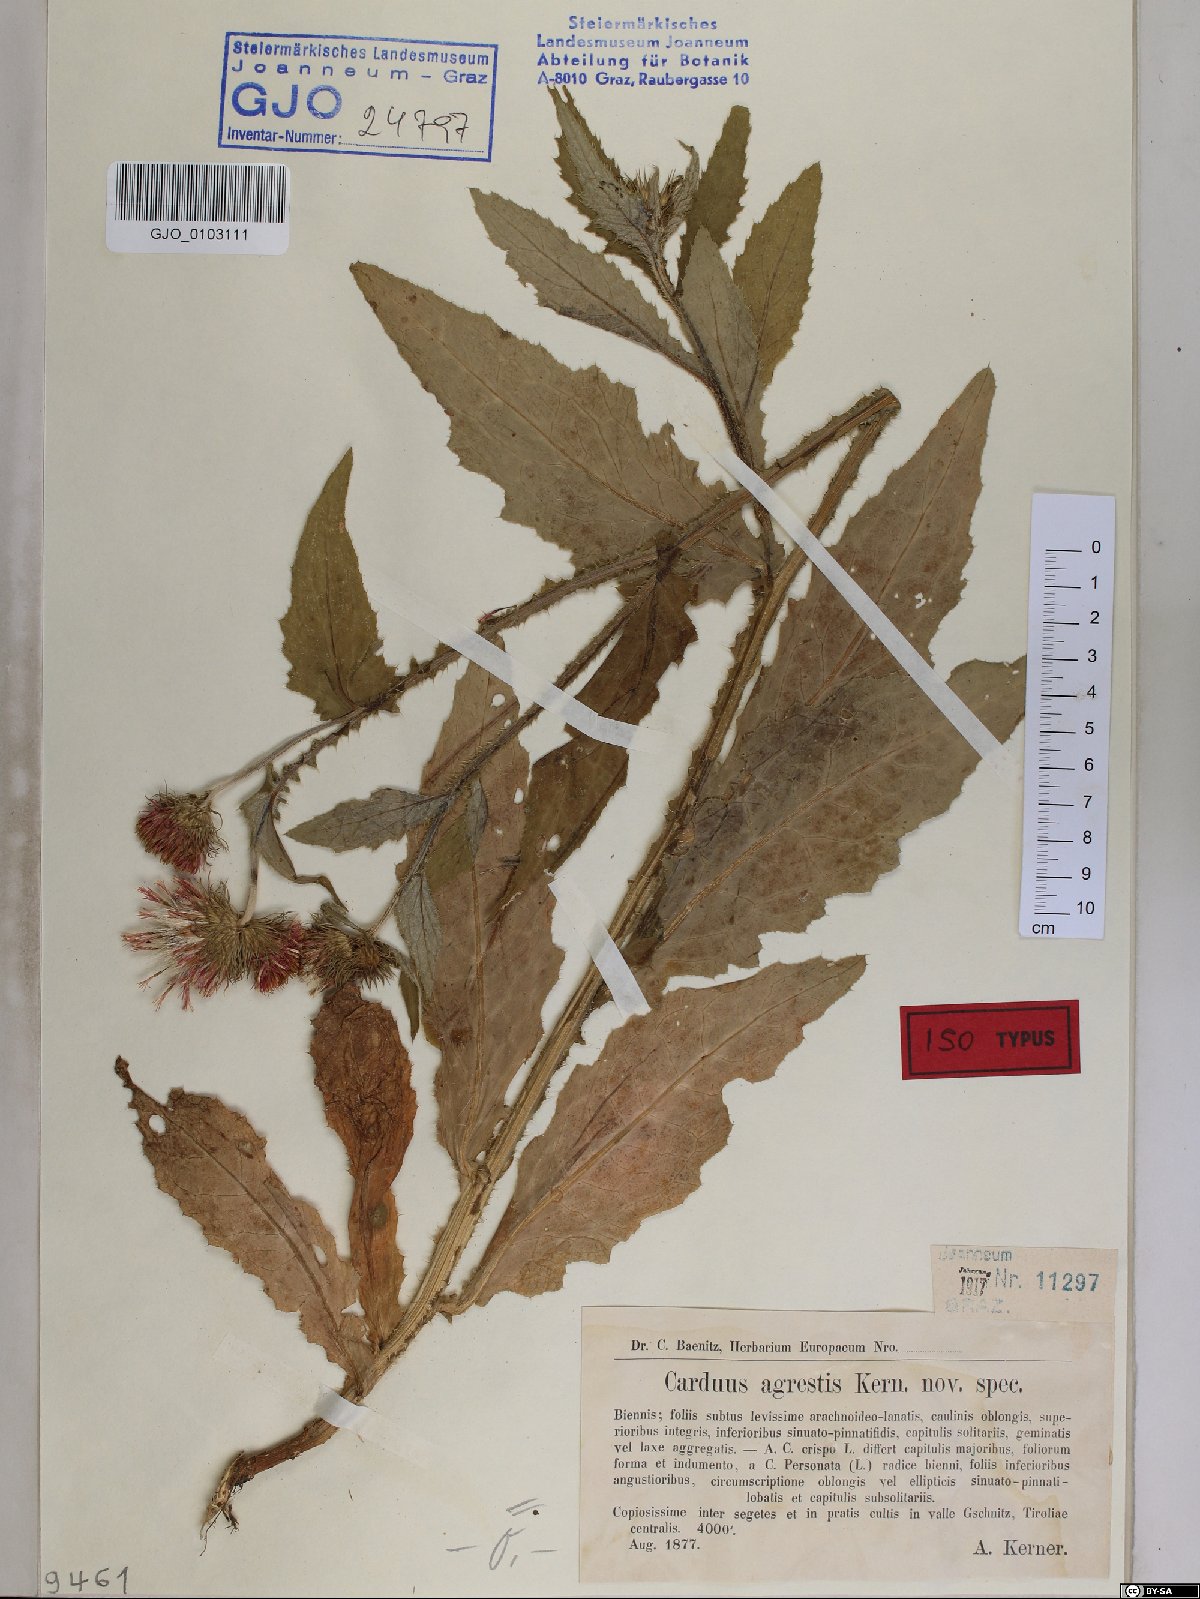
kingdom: Plantae
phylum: Tracheophyta
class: Magnoliopsida
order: Asterales
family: Asteraceae
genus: Carduus
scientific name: Carduus crispus
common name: Welted thistle
